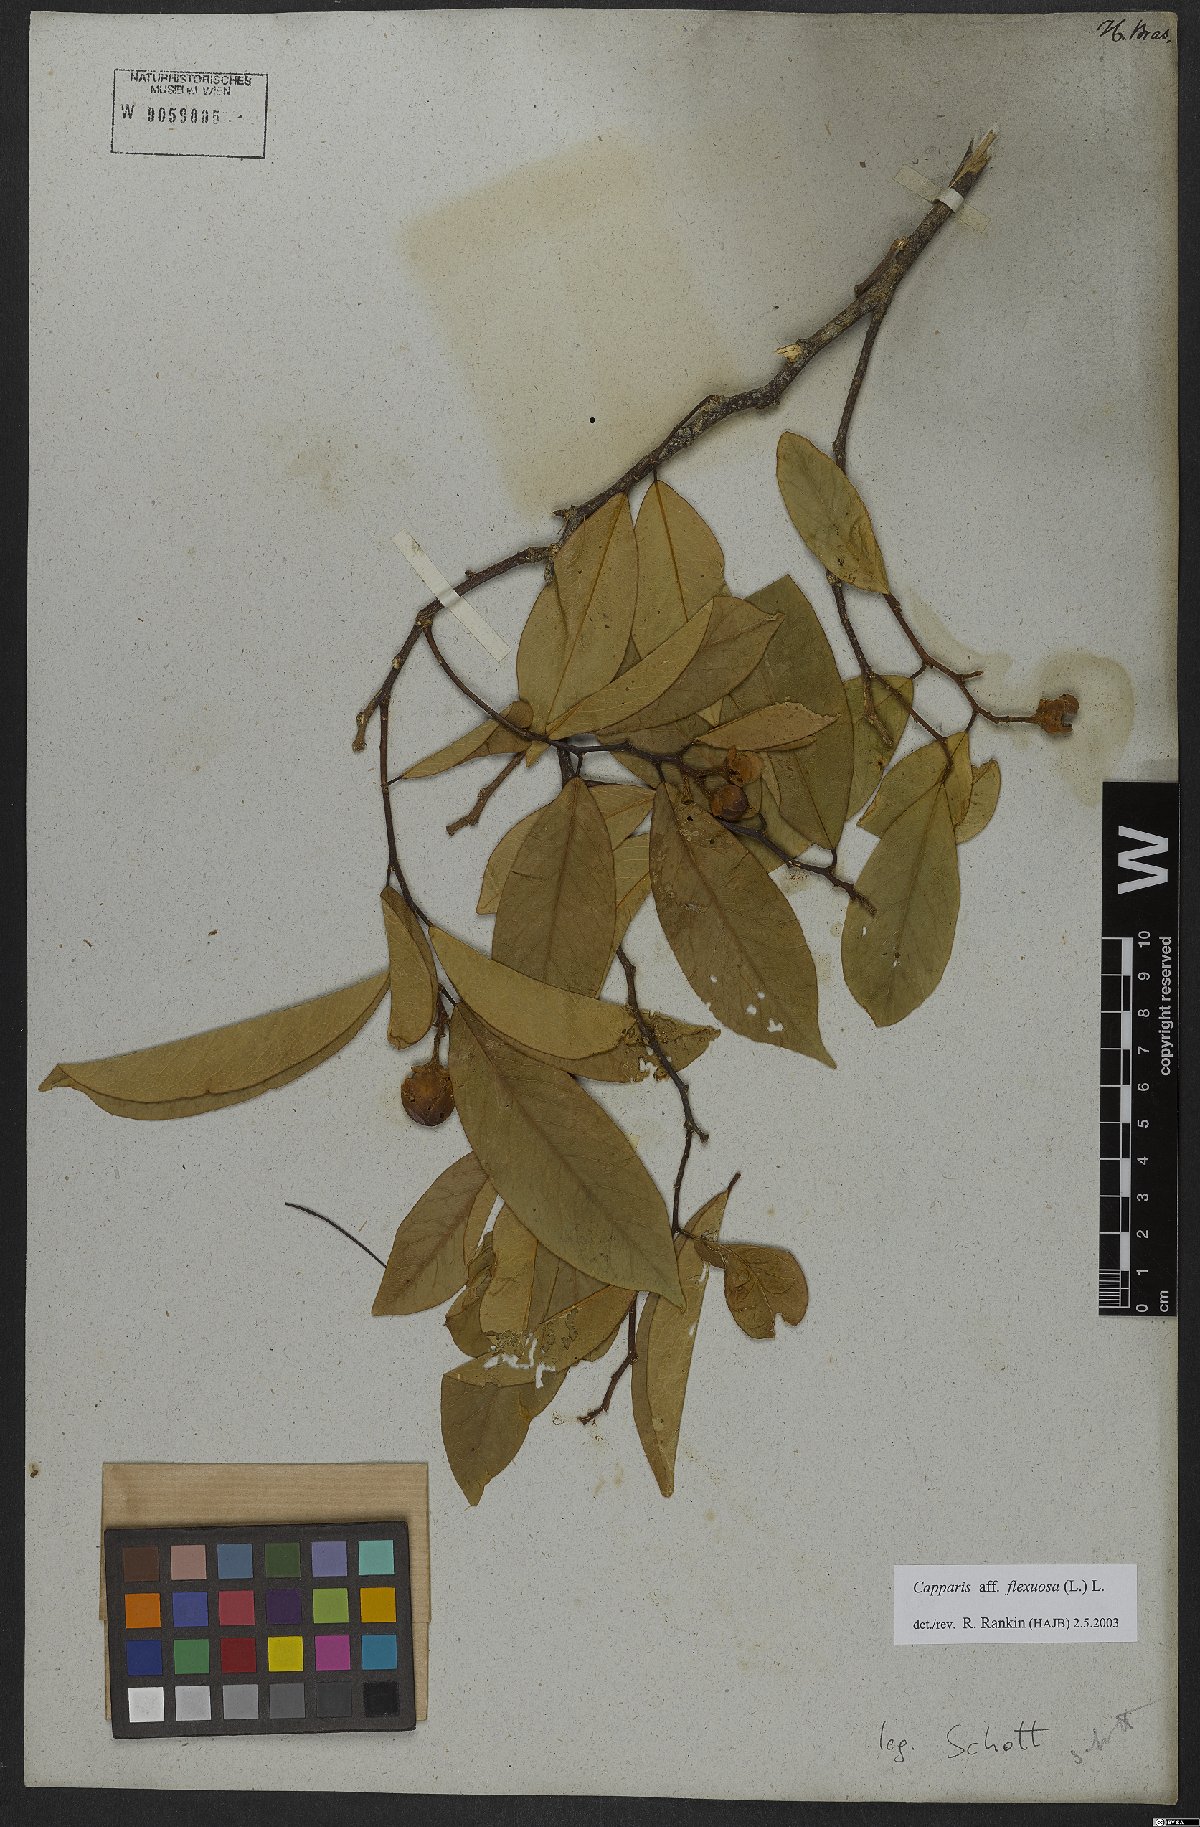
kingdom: Plantae
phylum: Tracheophyta
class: Magnoliopsida
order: Brassicales
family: Capparaceae
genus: Cynophalla
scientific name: Cynophalla flexuosa
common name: Capertree
